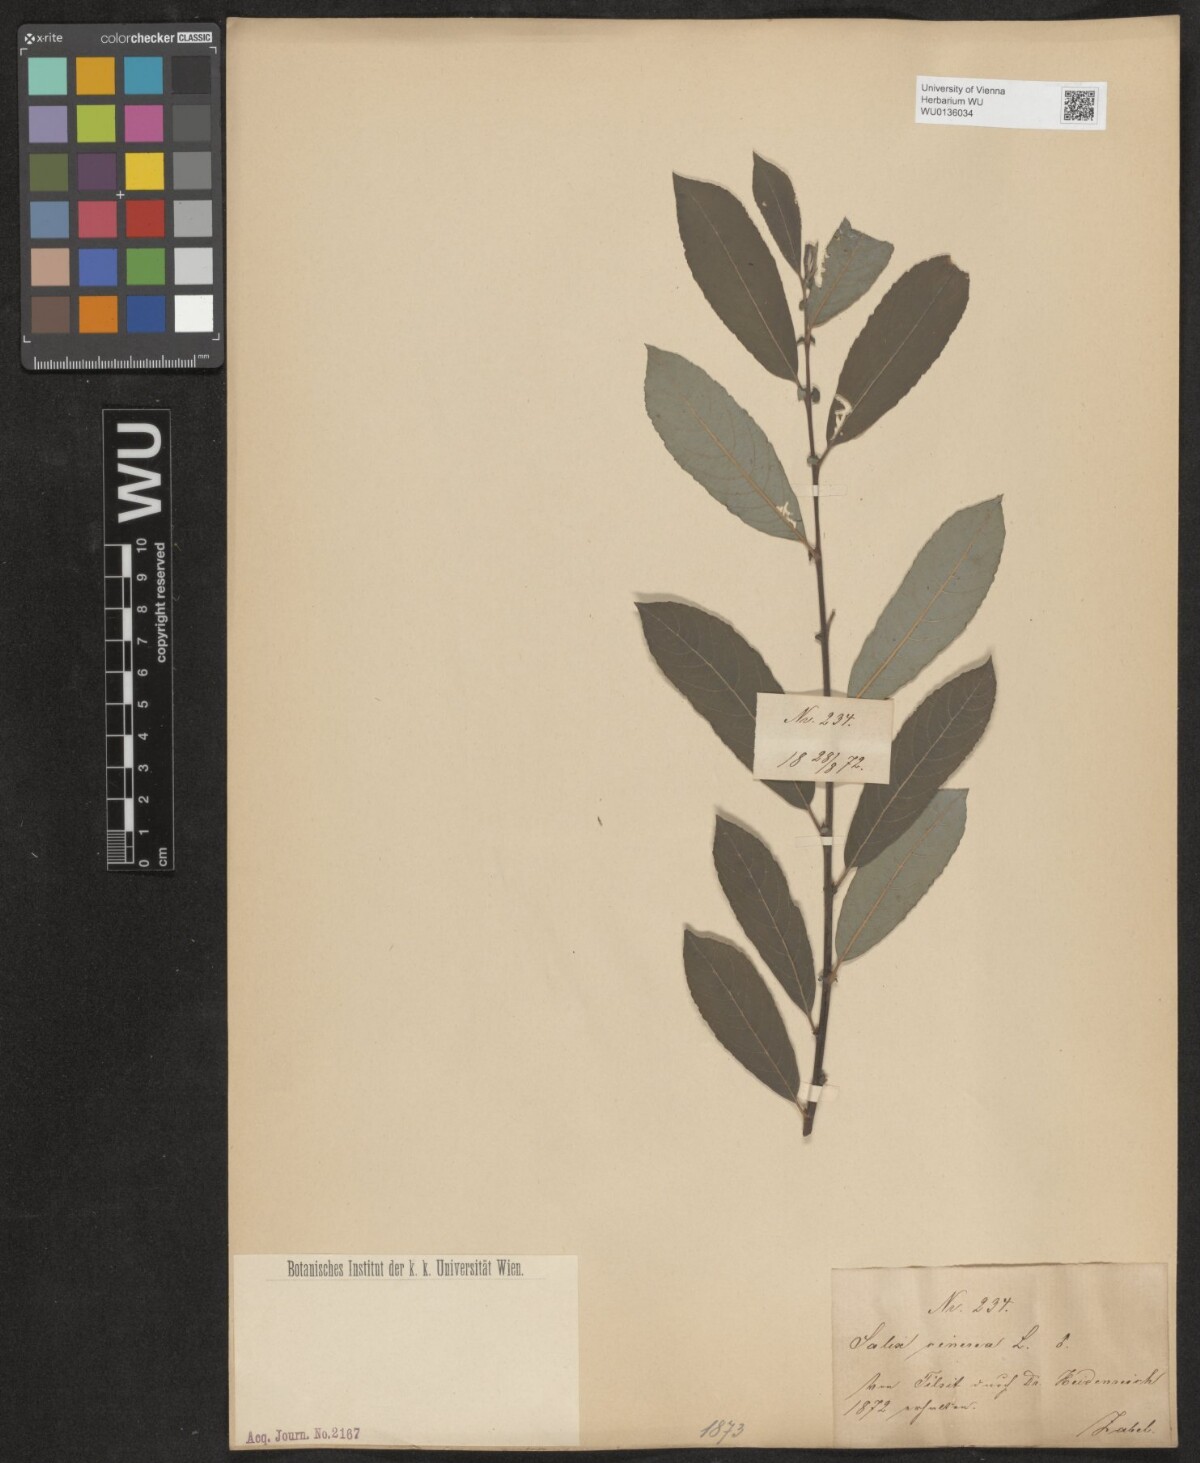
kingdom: Plantae
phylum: Tracheophyta
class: Magnoliopsida
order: Malpighiales
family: Salicaceae
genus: Salix
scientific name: Salix cinerea
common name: Common sallow
